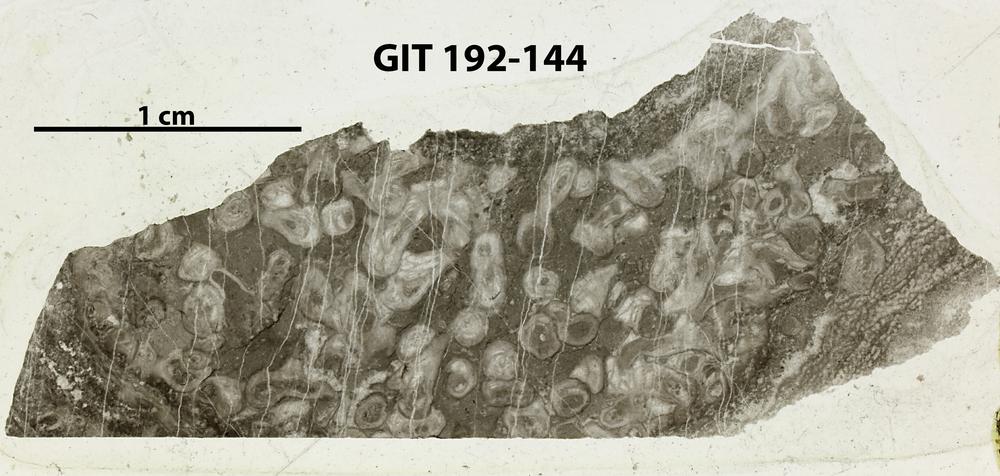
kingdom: Animalia
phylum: Porifera
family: Ecclimadictyidae
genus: Plexodictyon
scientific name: Plexodictyon
